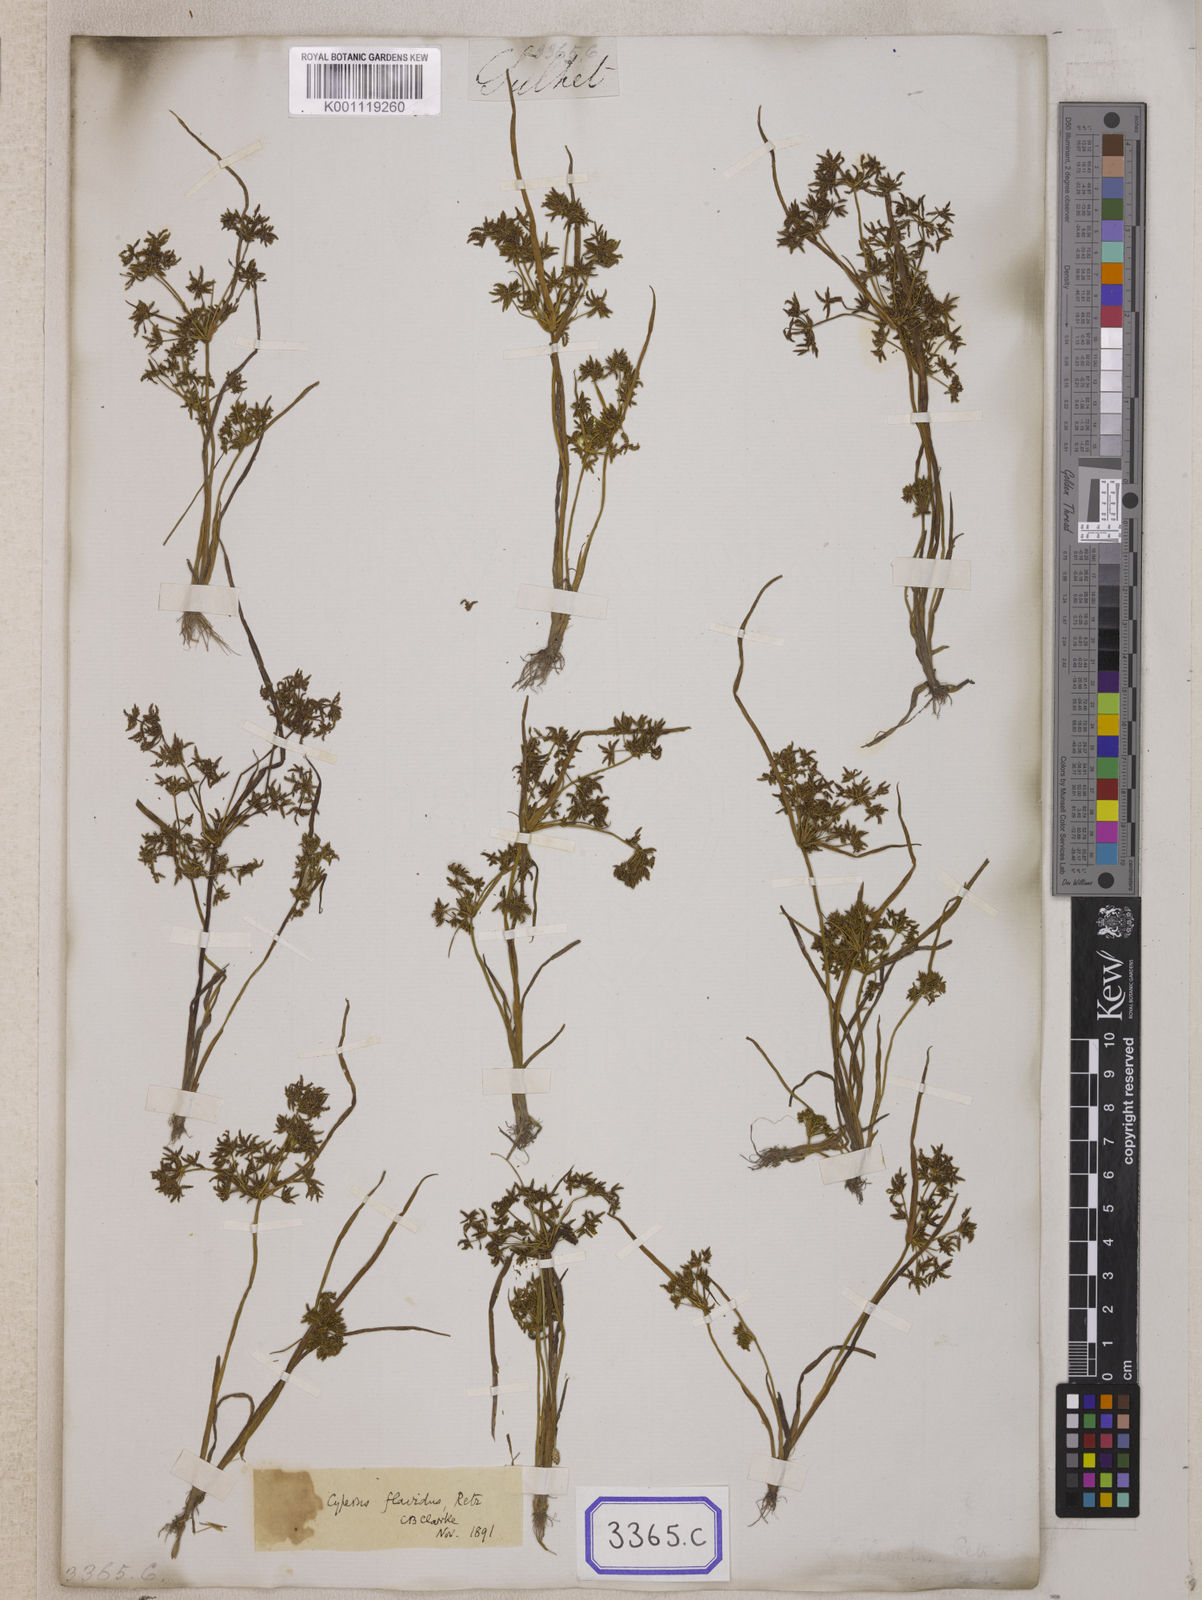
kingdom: Plantae
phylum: Tracheophyta
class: Liliopsida
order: Poales
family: Cyperaceae
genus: Cyperus
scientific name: Cyperus
